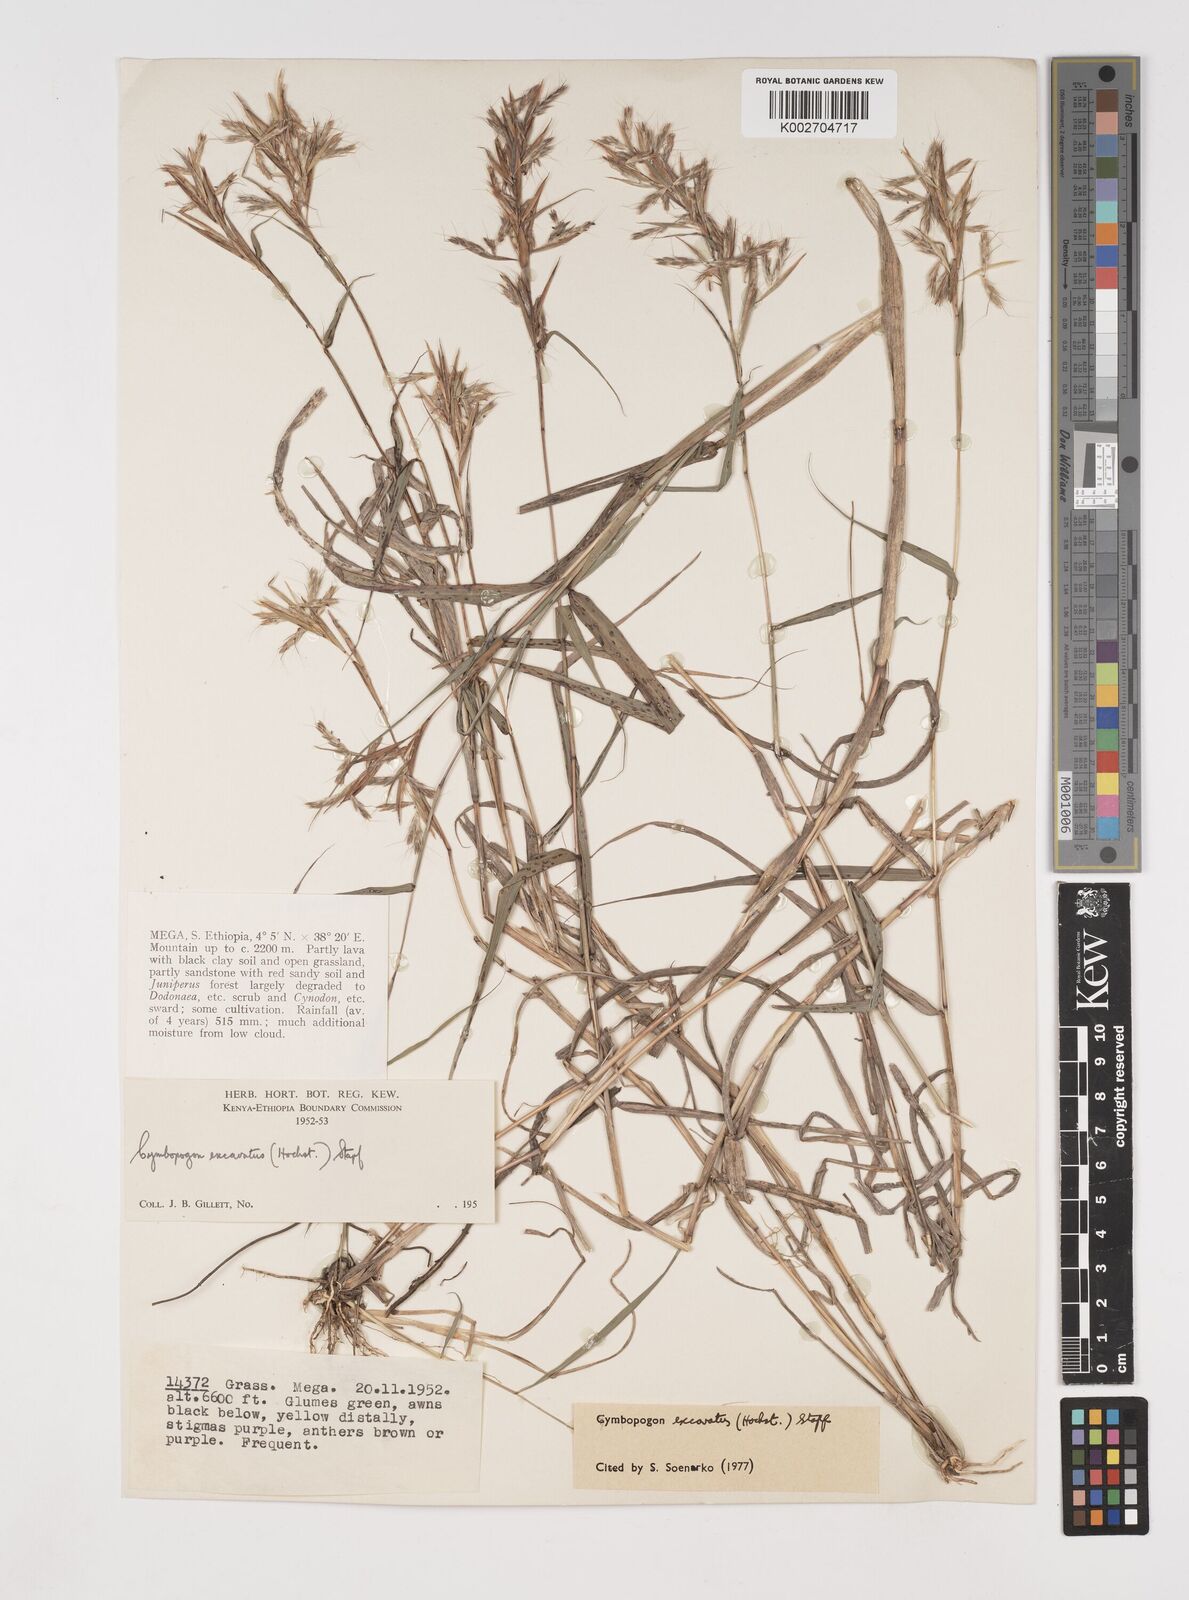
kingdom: Plantae
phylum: Tracheophyta
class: Liliopsida
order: Poales
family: Poaceae
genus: Cymbopogon
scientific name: Cymbopogon caesius
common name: Kachi grass
